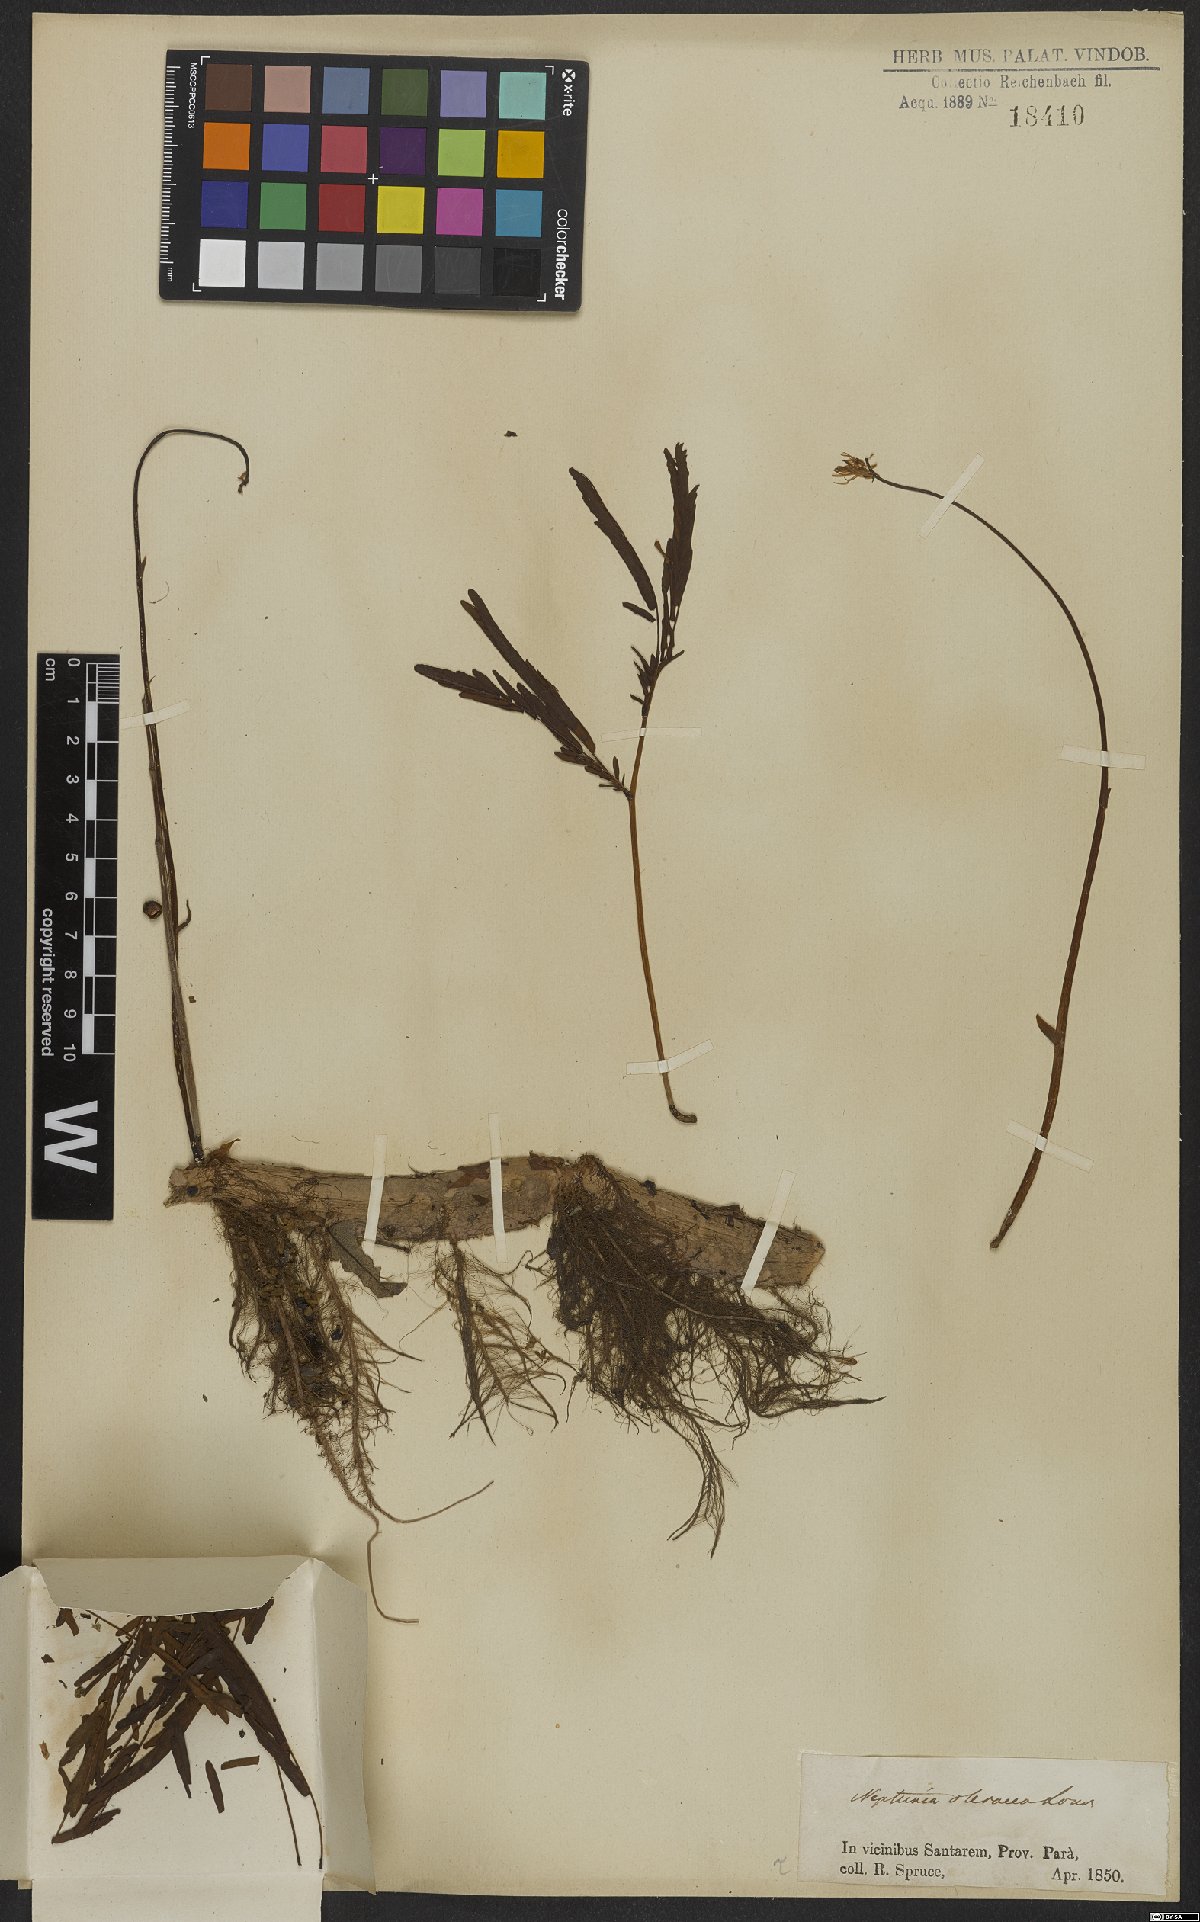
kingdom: Plantae
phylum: Tracheophyta
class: Magnoliopsida
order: Fabales
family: Fabaceae
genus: Neptunia
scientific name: Neptunia prostrata
